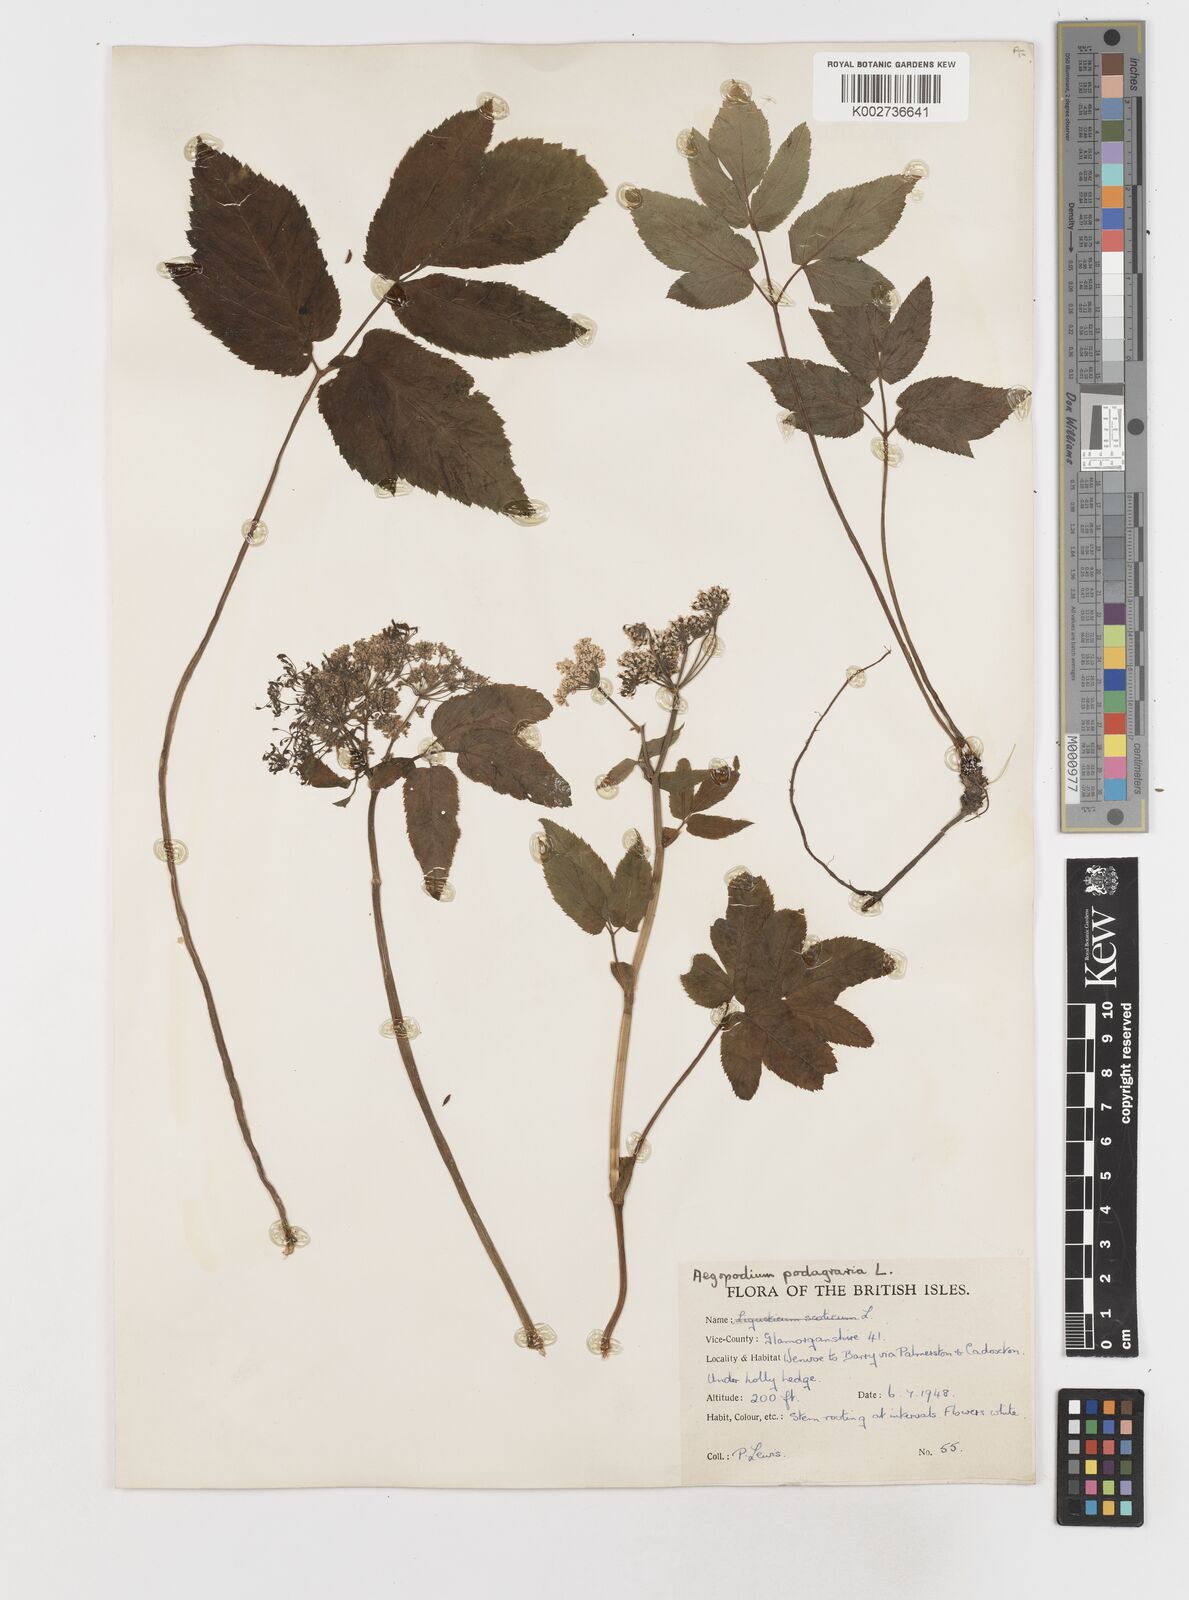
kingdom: Plantae
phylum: Tracheophyta
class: Magnoliopsida
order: Apiales
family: Apiaceae
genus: Aegopodium
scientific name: Aegopodium podagraria
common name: Ground-elder
